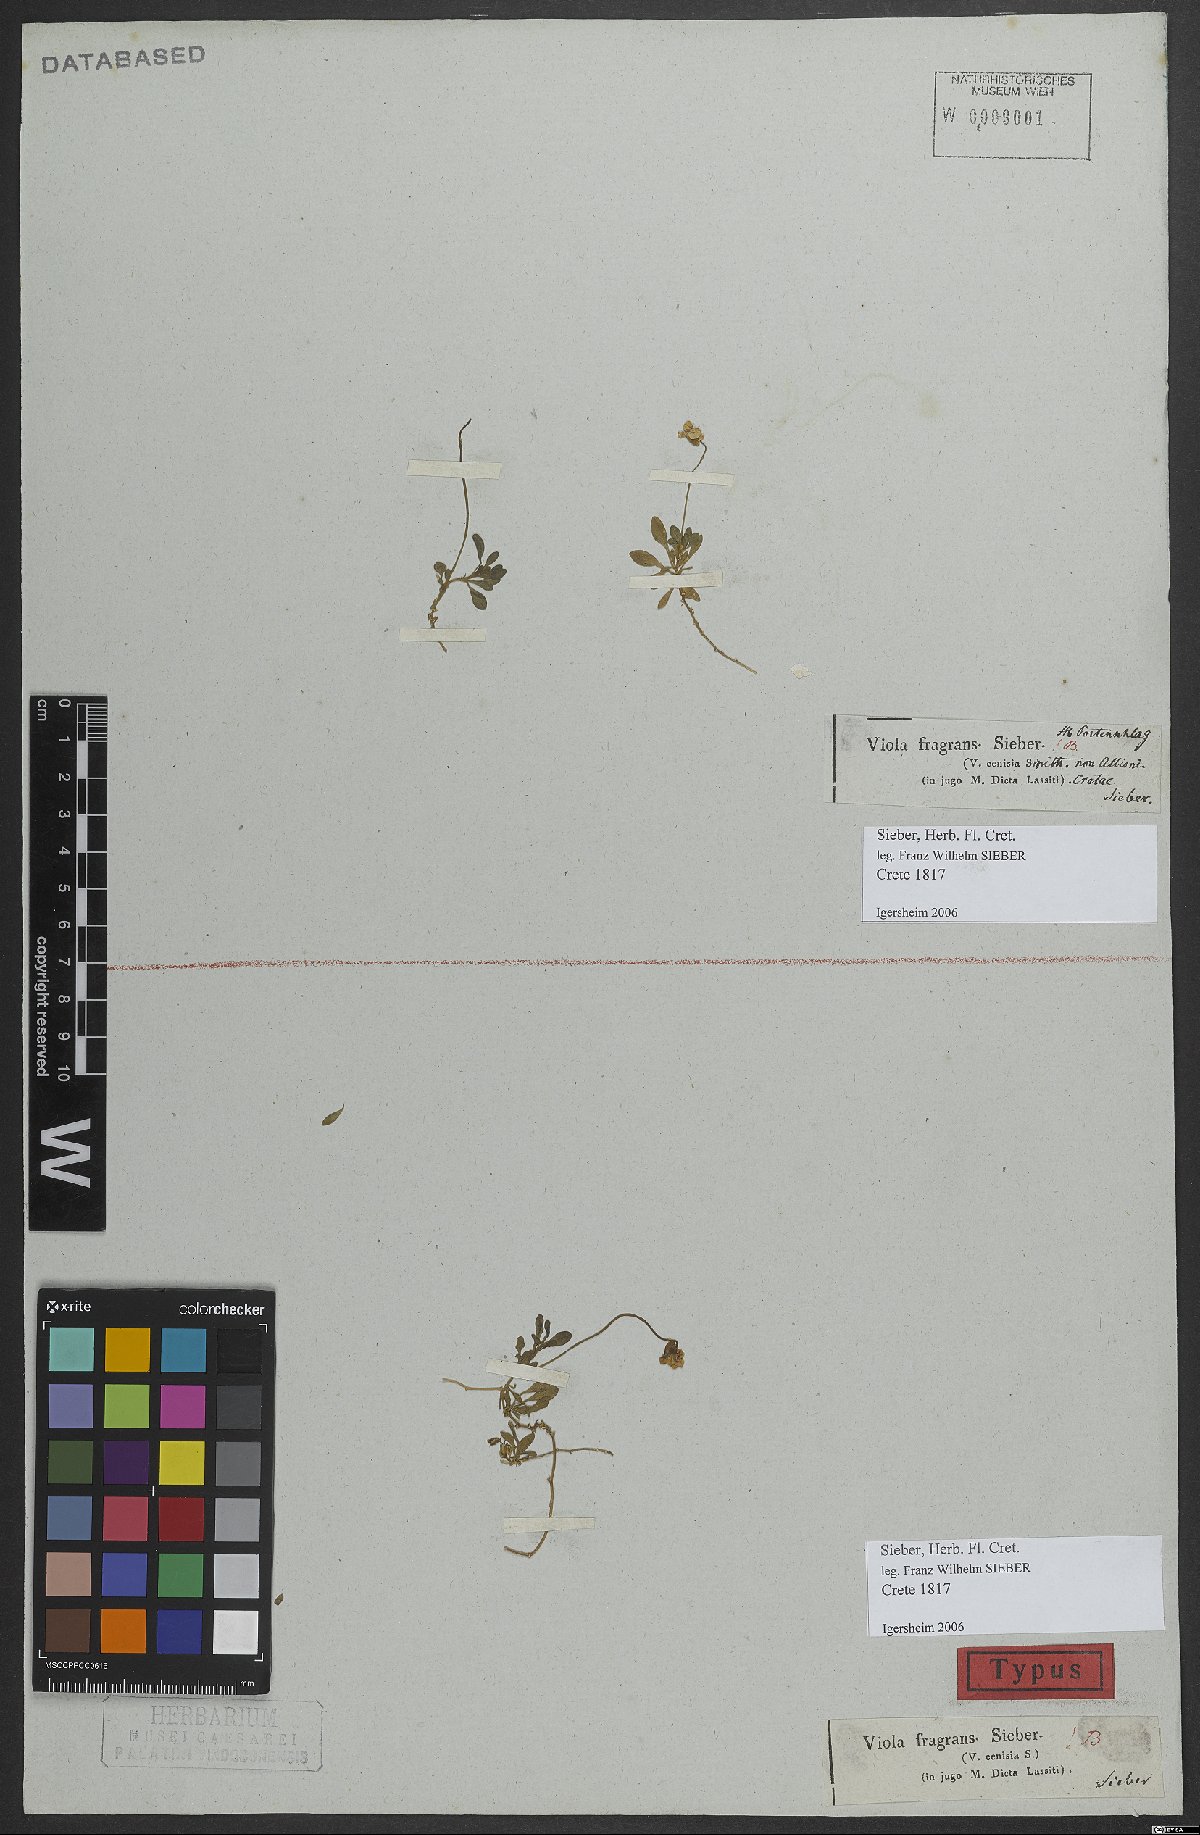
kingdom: Plantae
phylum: Tracheophyta
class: Magnoliopsida
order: Malpighiales
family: Violaceae
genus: Viola
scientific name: Viola fragrans
